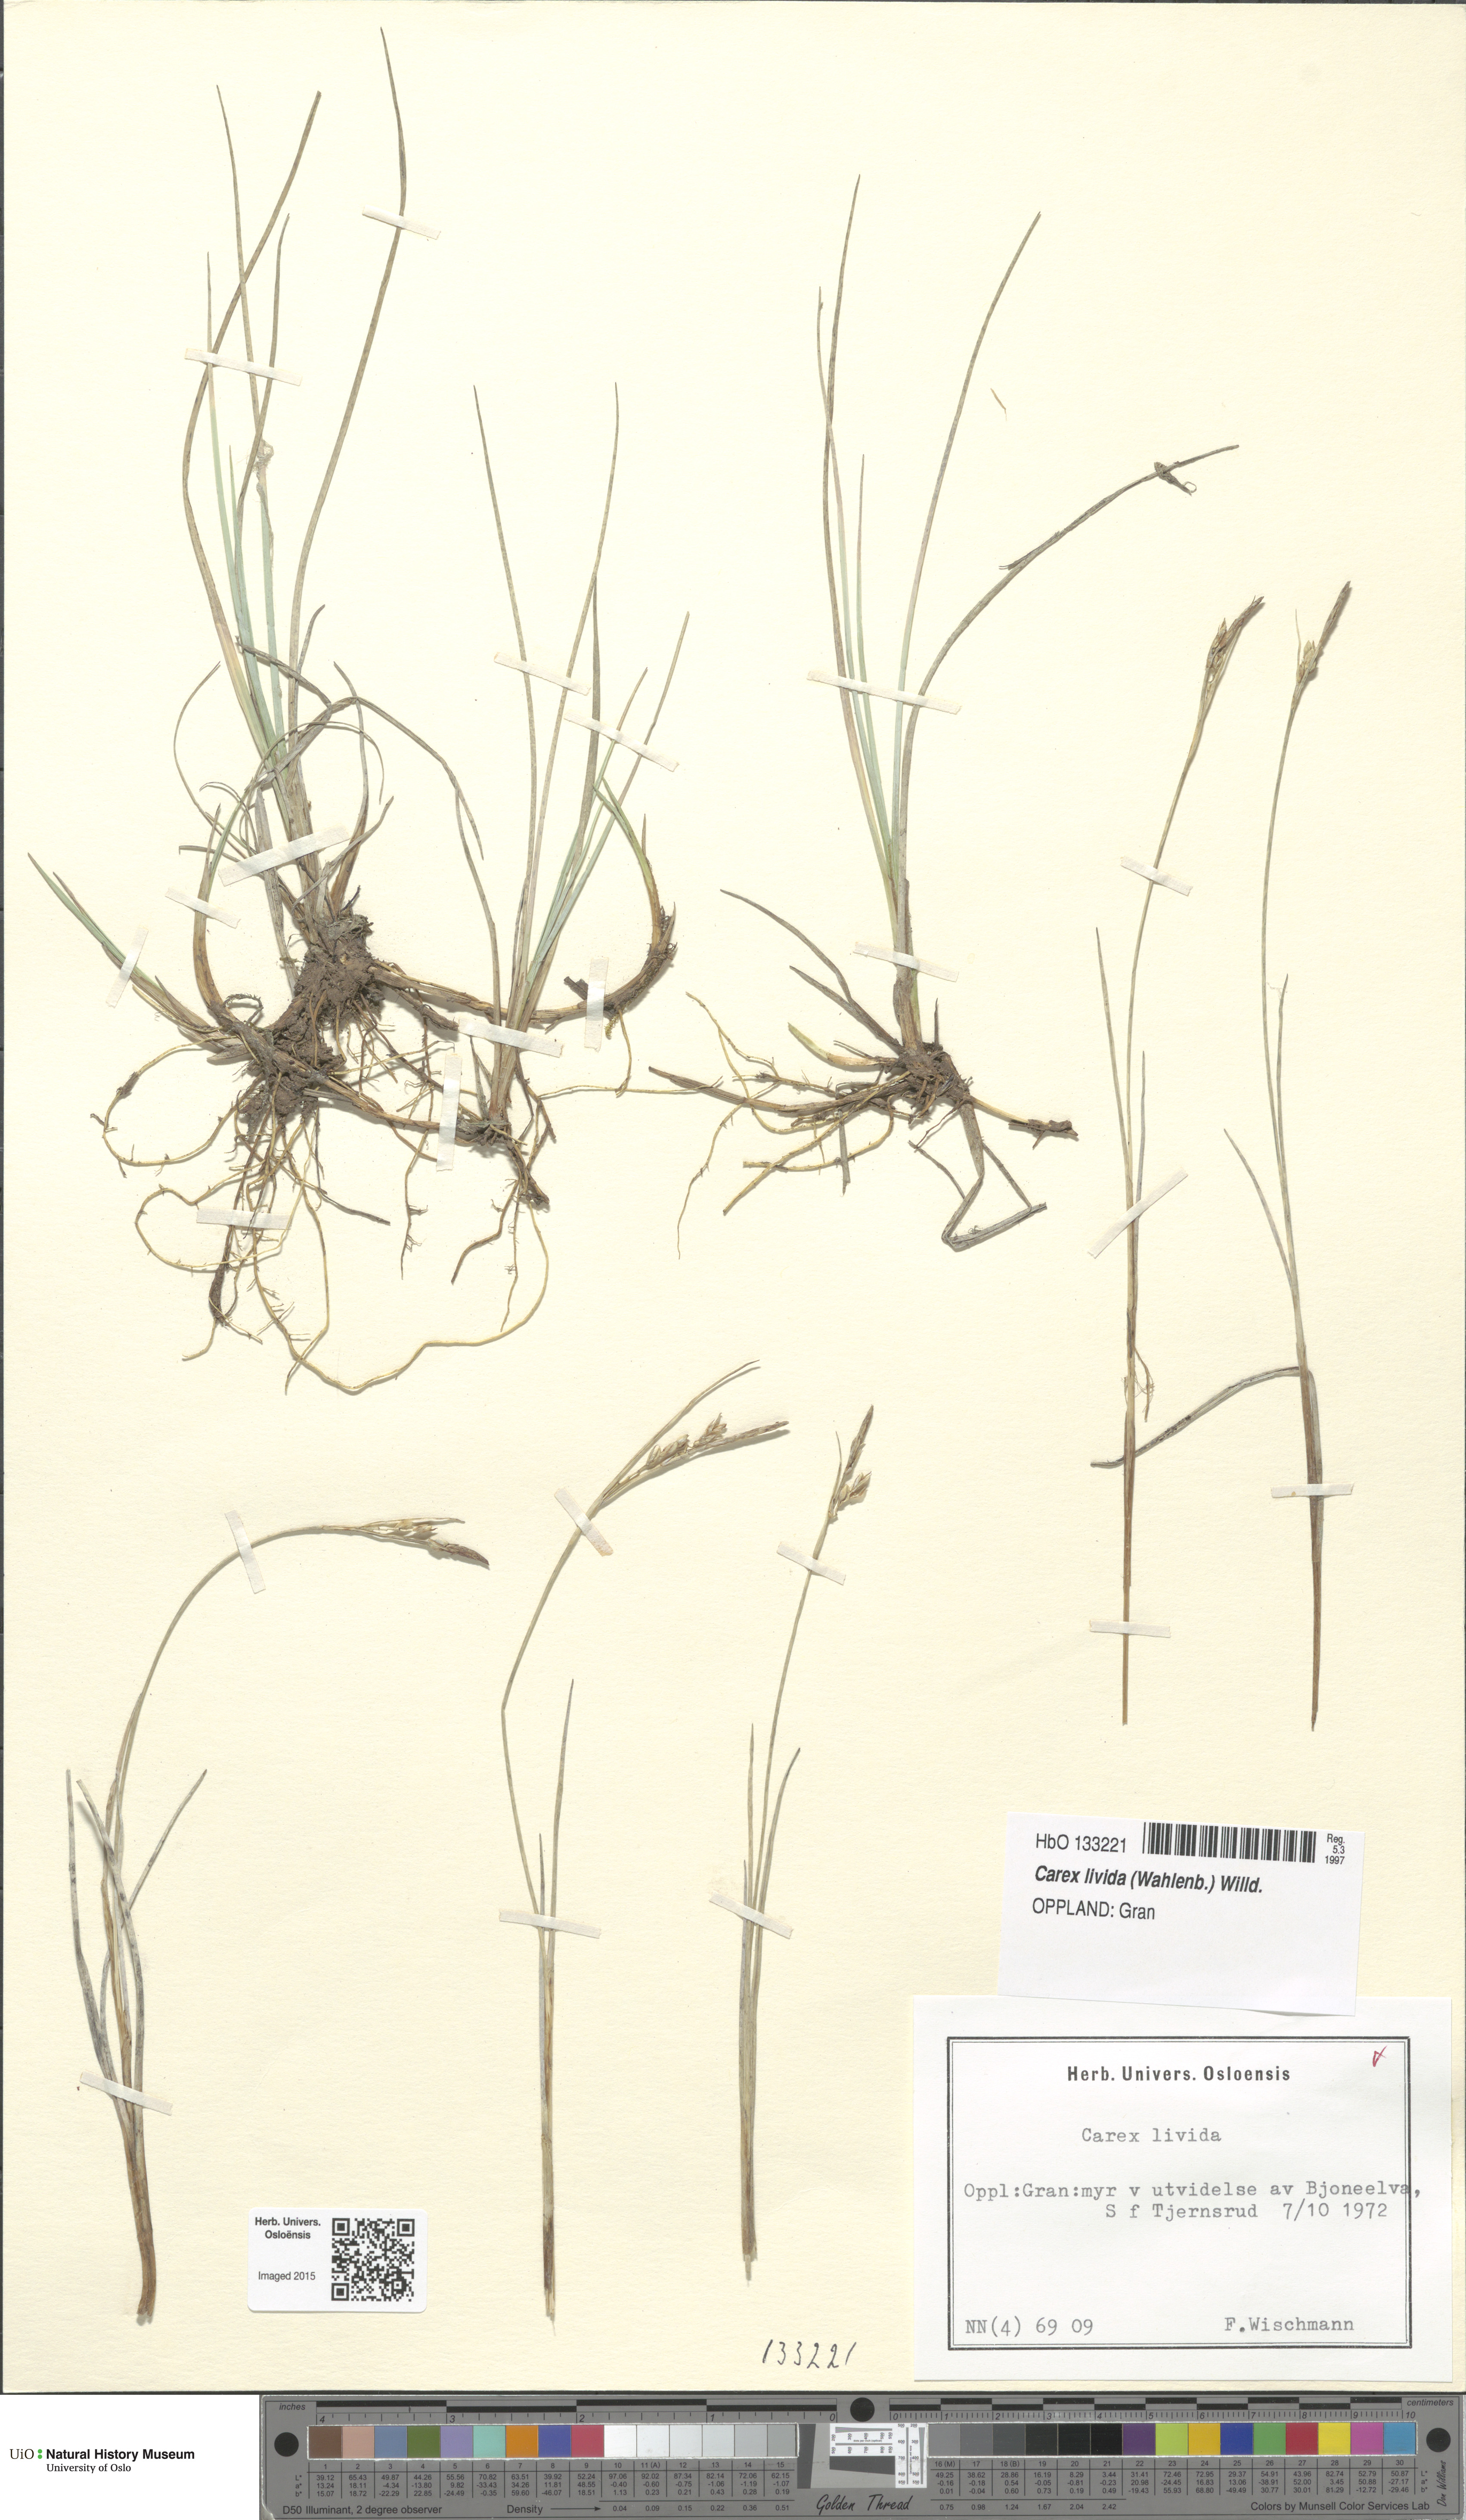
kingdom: Plantae
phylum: Tracheophyta
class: Liliopsida
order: Poales
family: Cyperaceae
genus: Carex
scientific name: Carex livida
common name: Livid sedge
